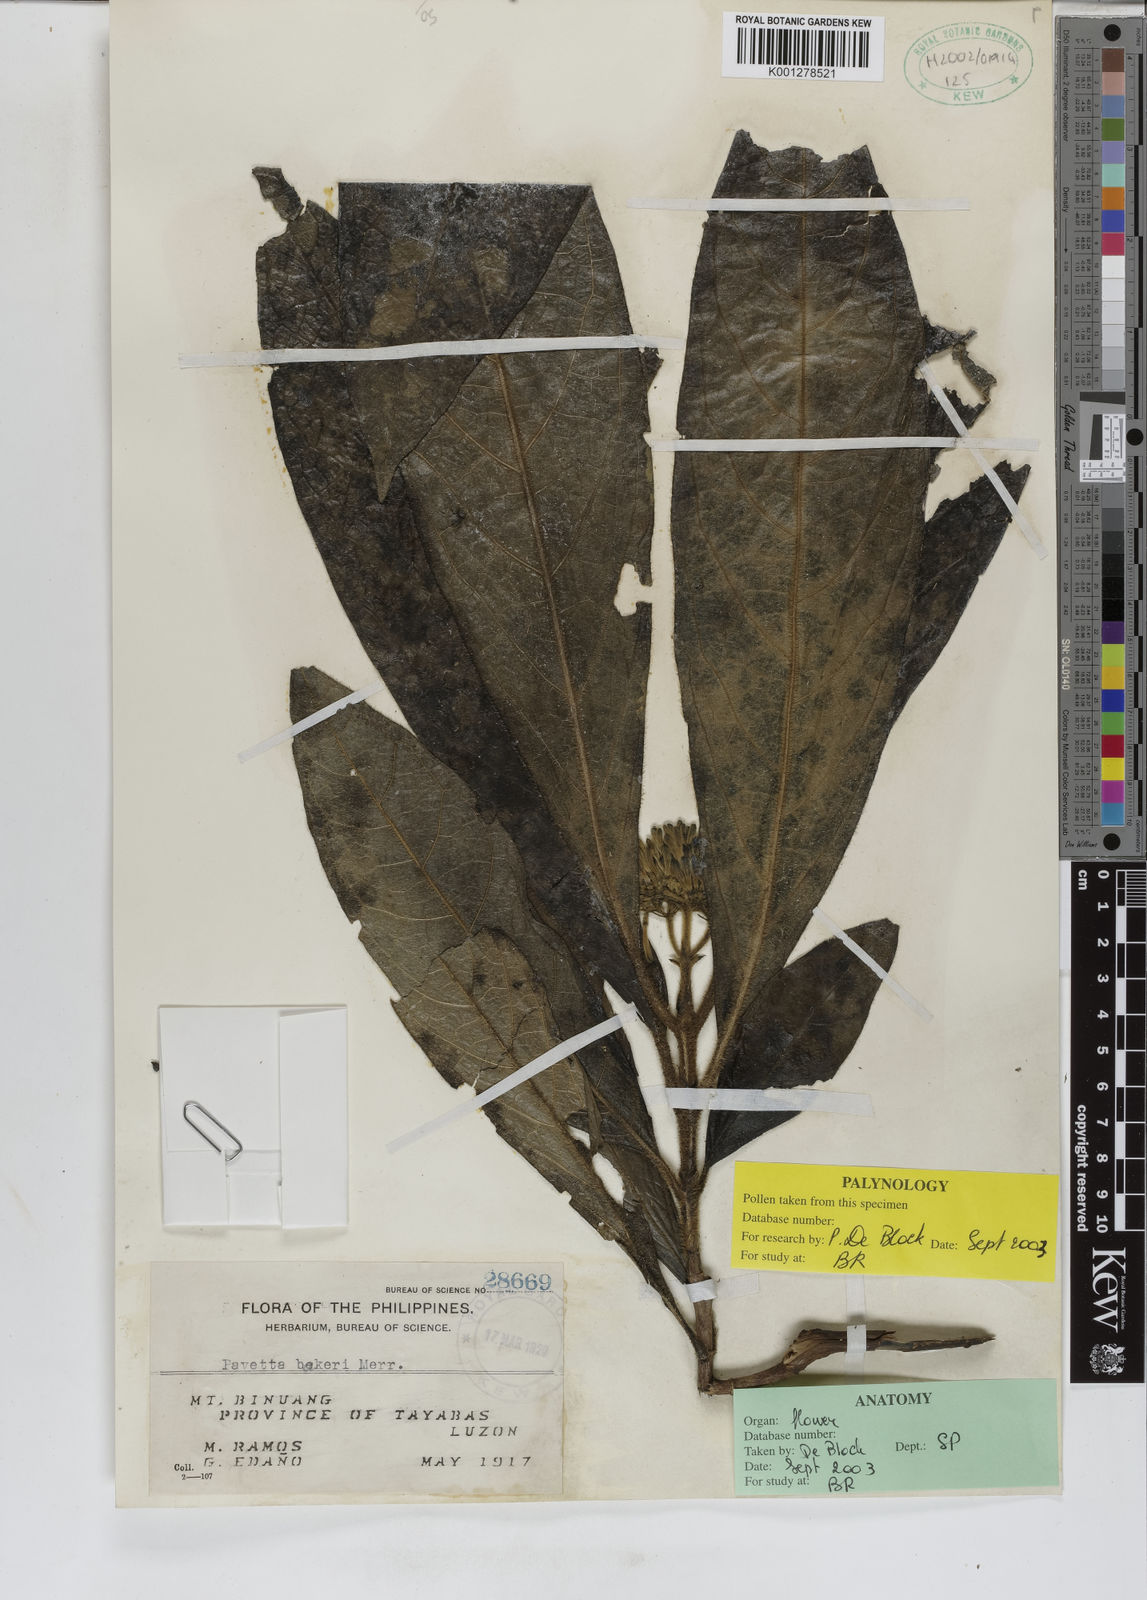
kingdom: Plantae
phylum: Tracheophyta
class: Magnoliopsida
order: Gentianales
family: Rubiaceae
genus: Tarenna
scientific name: Tarenna bakeri
